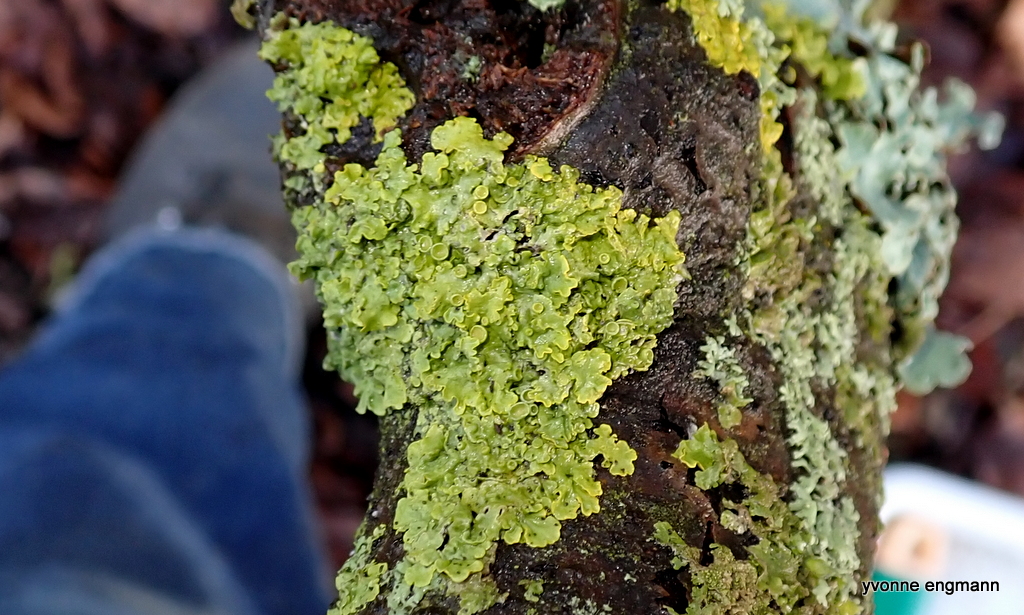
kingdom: Fungi
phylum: Ascomycota
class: Lecanoromycetes
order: Teloschistales
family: Teloschistaceae
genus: Xanthoria
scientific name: Xanthoria parietina
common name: almindelig væggelav
